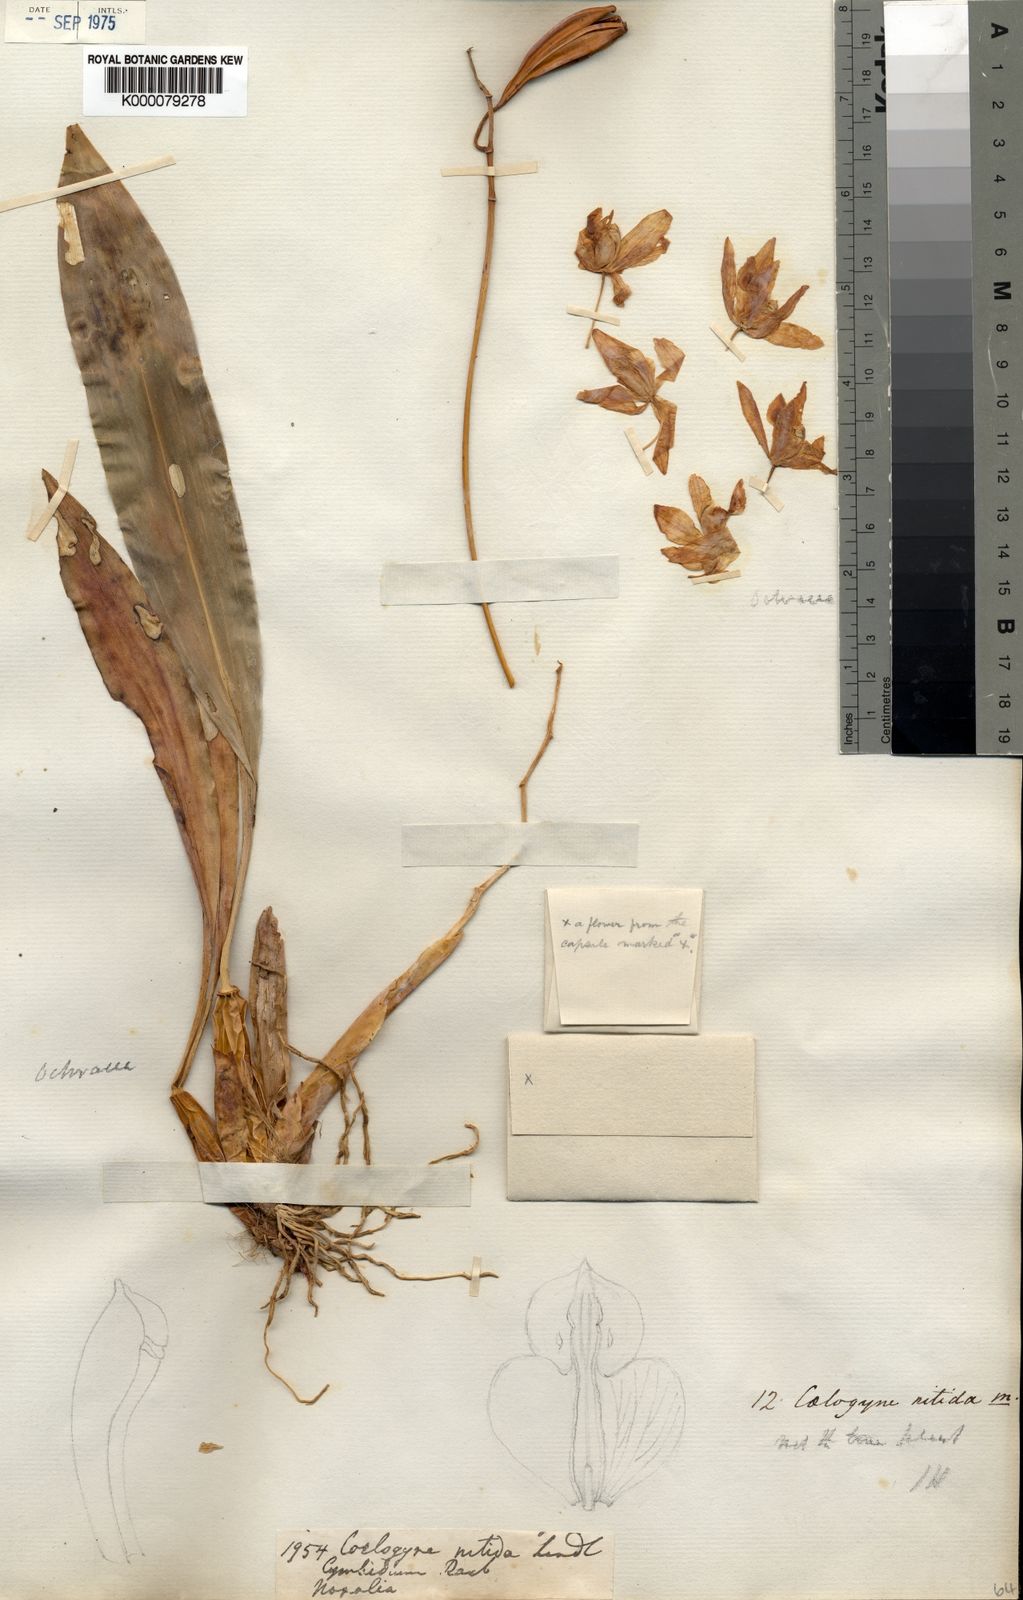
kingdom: Plantae
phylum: Tracheophyta
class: Liliopsida
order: Asparagales
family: Orchidaceae
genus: Coelogyne
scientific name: Coelogyne nitida
